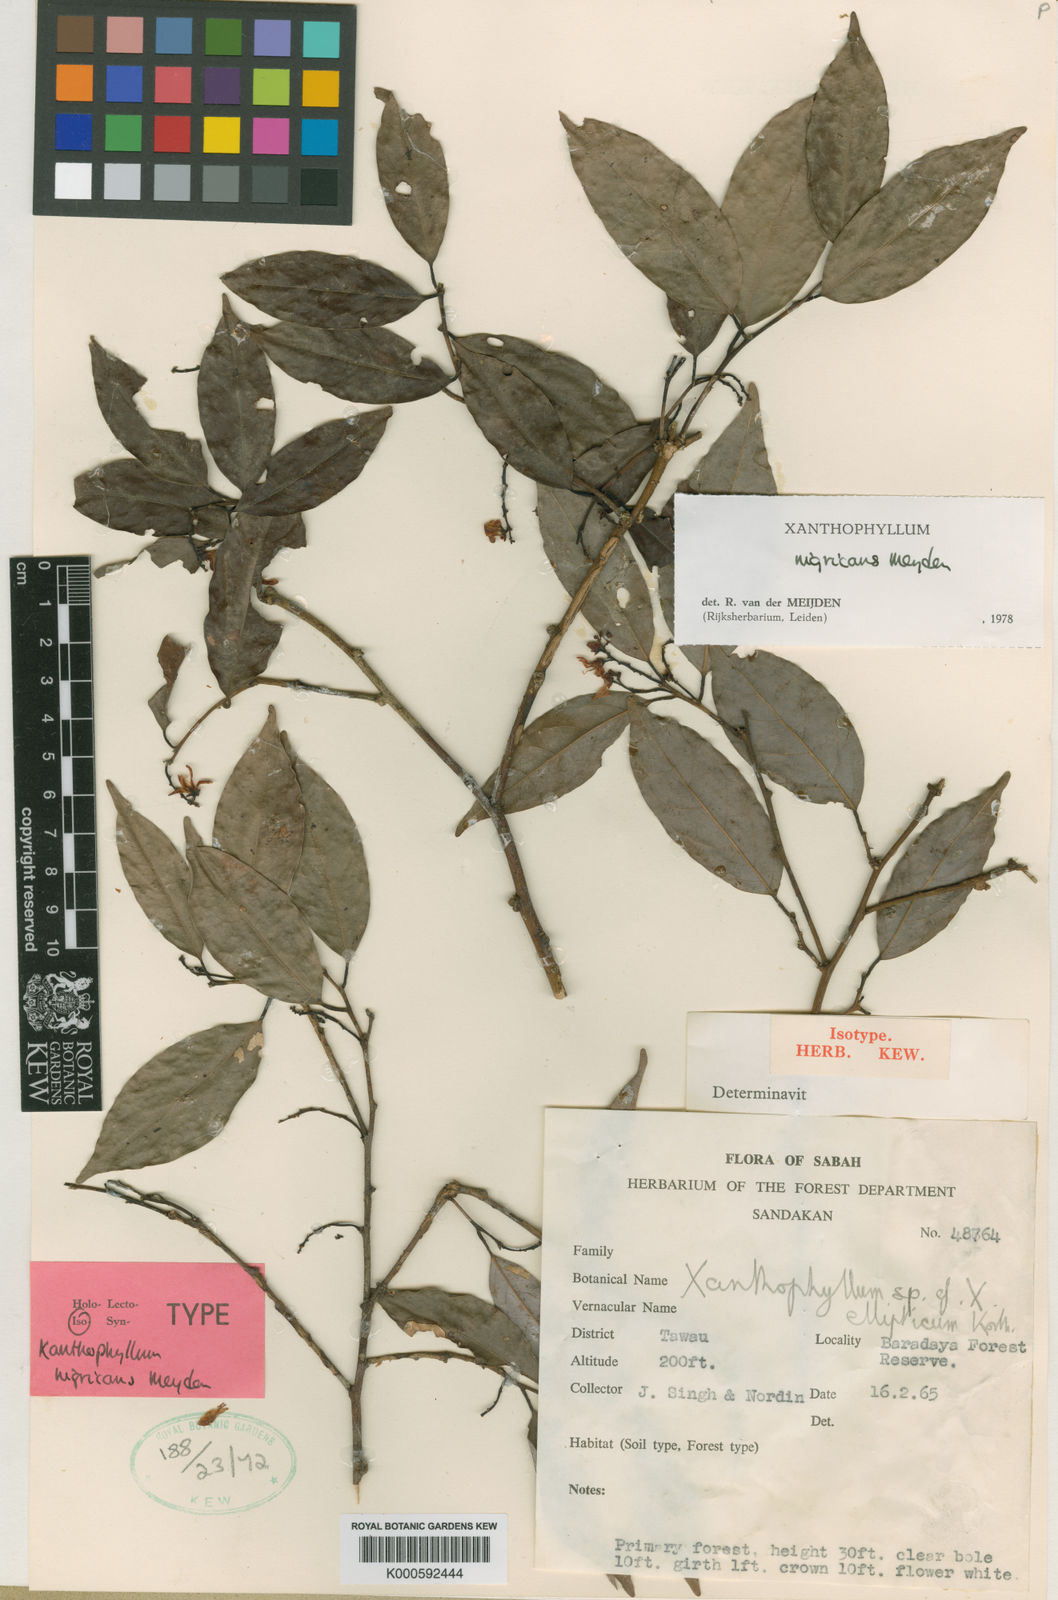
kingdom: Plantae
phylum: Tracheophyta
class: Magnoliopsida
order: Fabales
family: Polygalaceae
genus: Xanthophyllum
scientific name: Xanthophyllum nigricans
